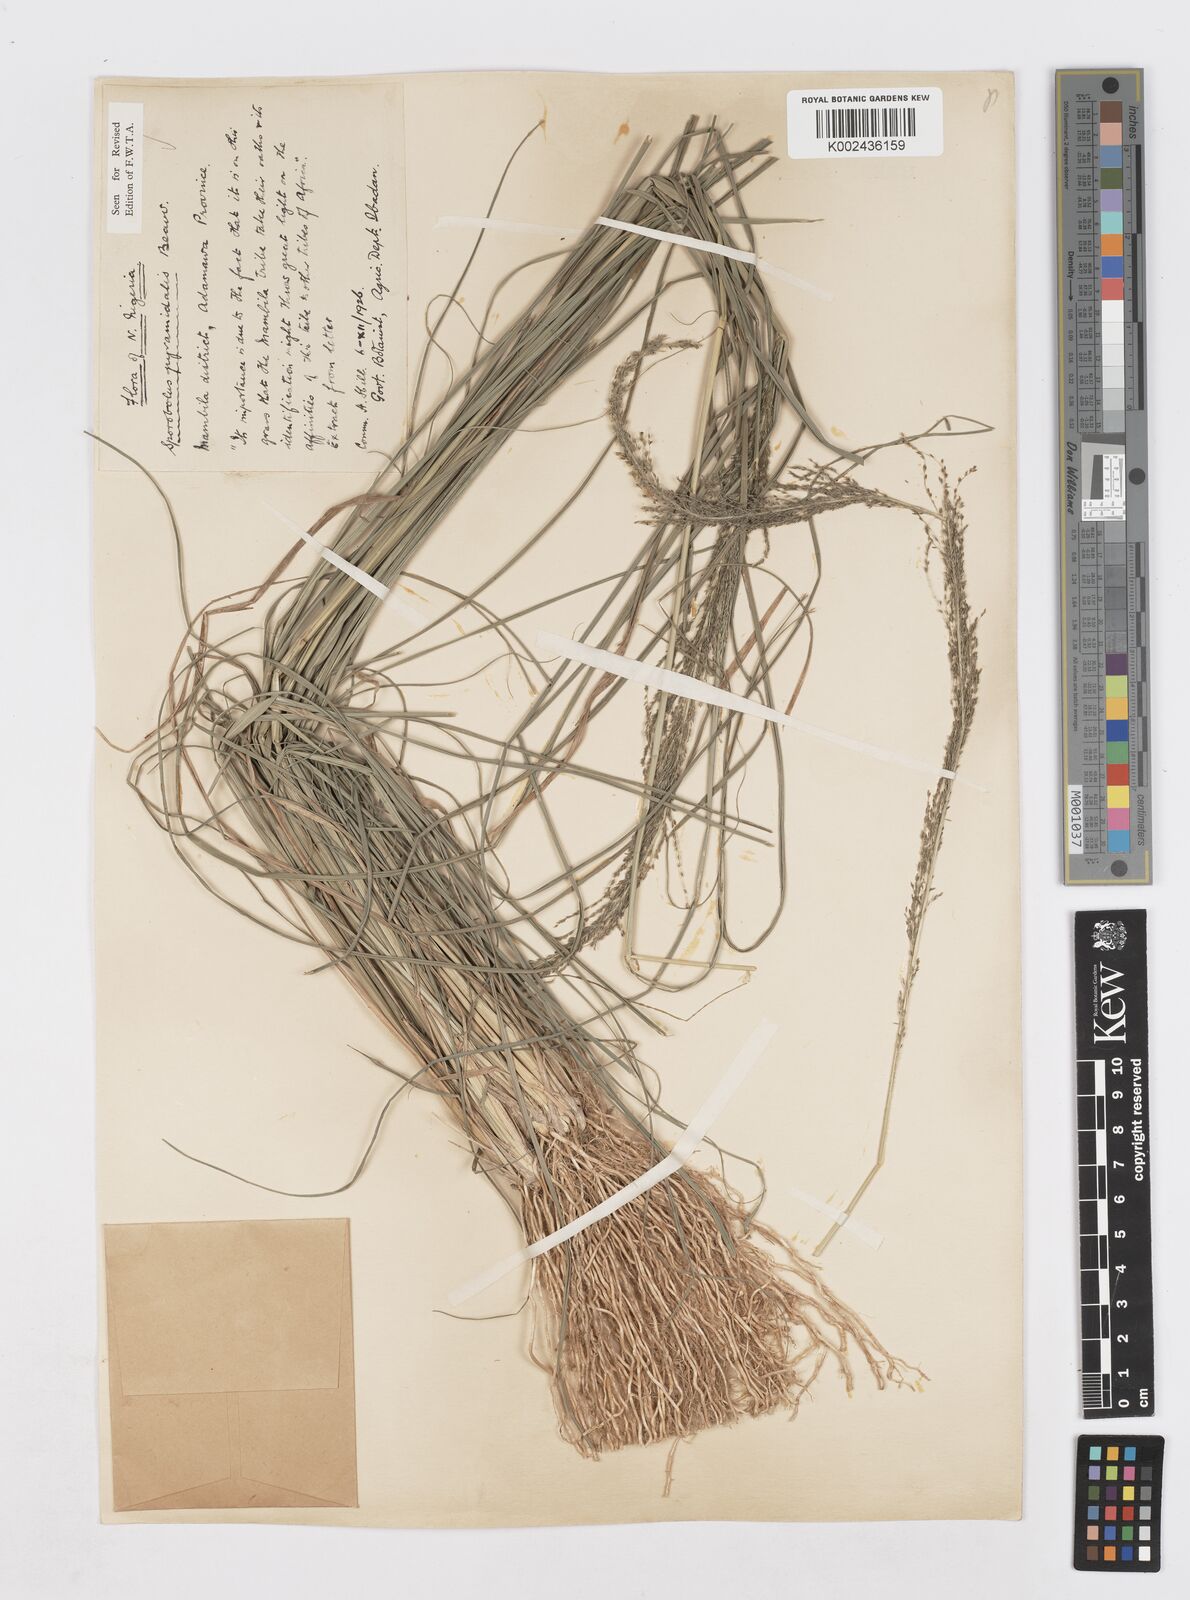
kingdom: Plantae
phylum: Tracheophyta
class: Liliopsida
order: Poales
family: Poaceae
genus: Sporobolus
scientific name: Sporobolus pyramidalis
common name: West indian dropseed
